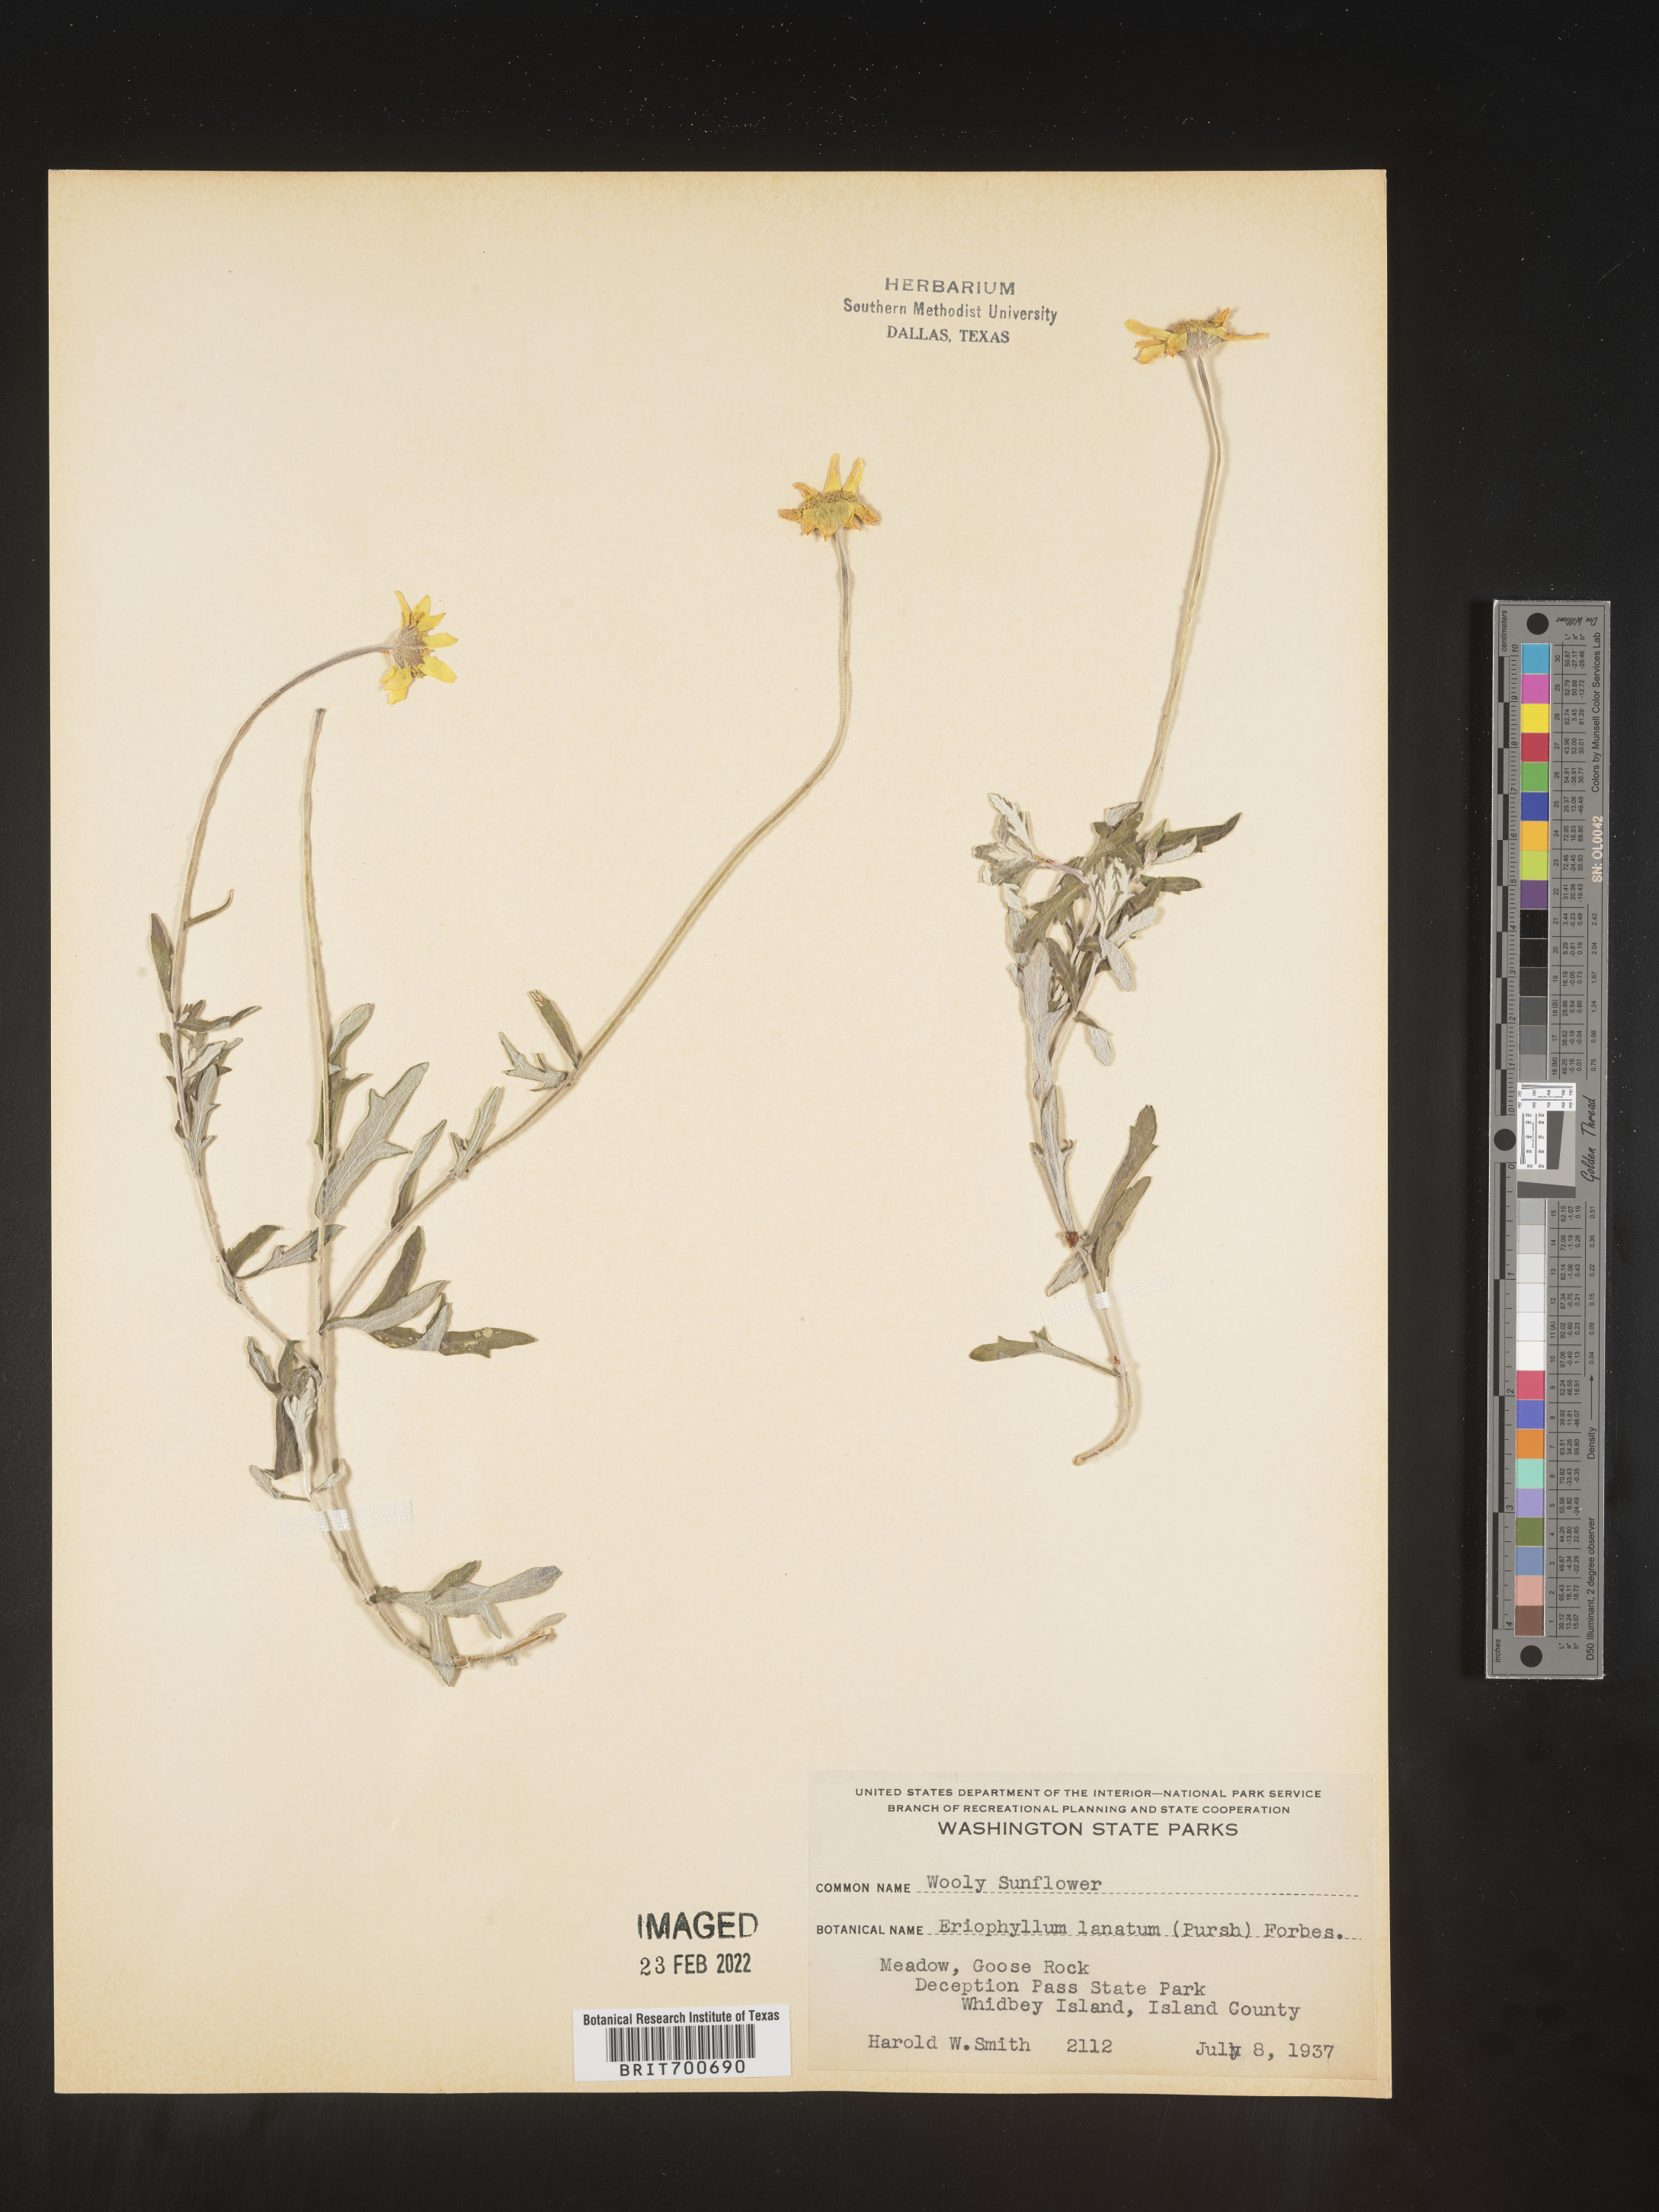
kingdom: Plantae
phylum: Tracheophyta
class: Magnoliopsida
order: Asterales
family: Asteraceae
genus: Eriophyllum
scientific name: Eriophyllum lanatum
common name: Common woolly-sunflower
